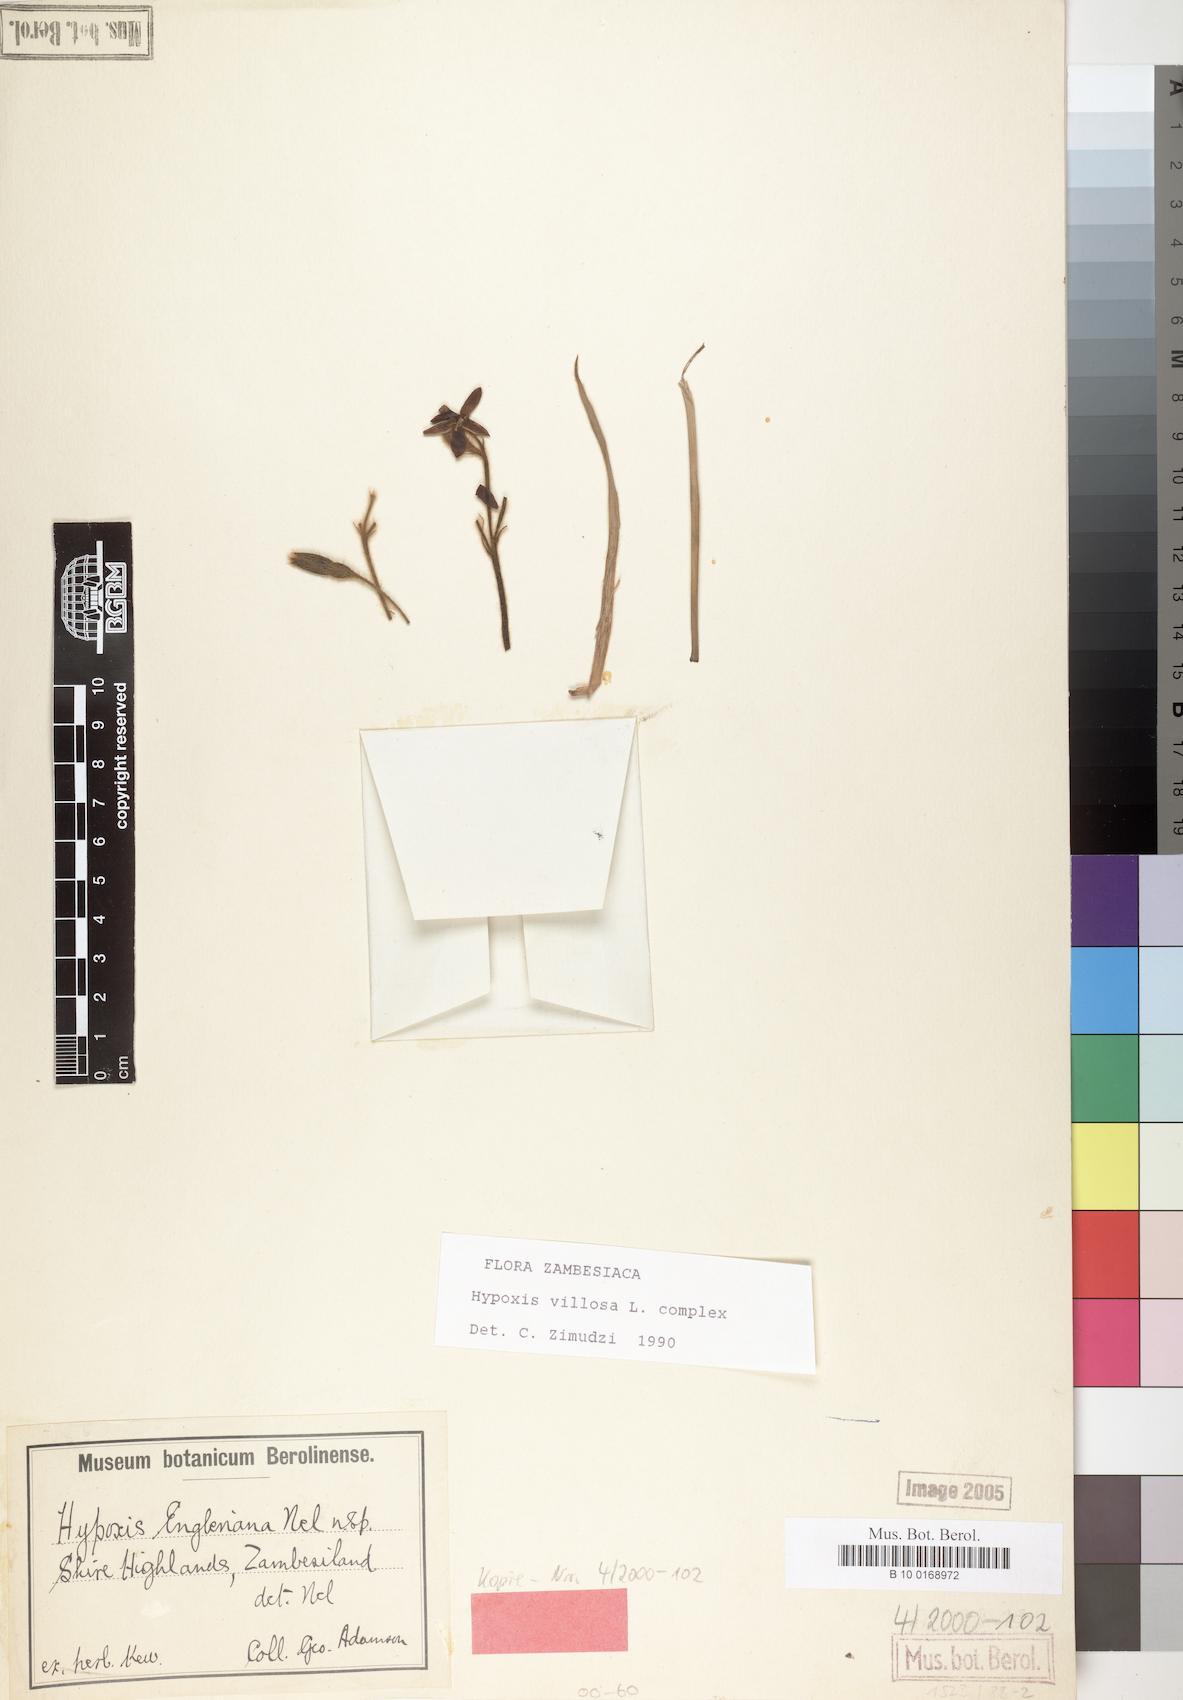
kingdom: Plantae
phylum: Tracheophyta
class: Liliopsida
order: Asparagales
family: Hypoxidaceae
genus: Hypoxis
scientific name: Hypoxis villosa
